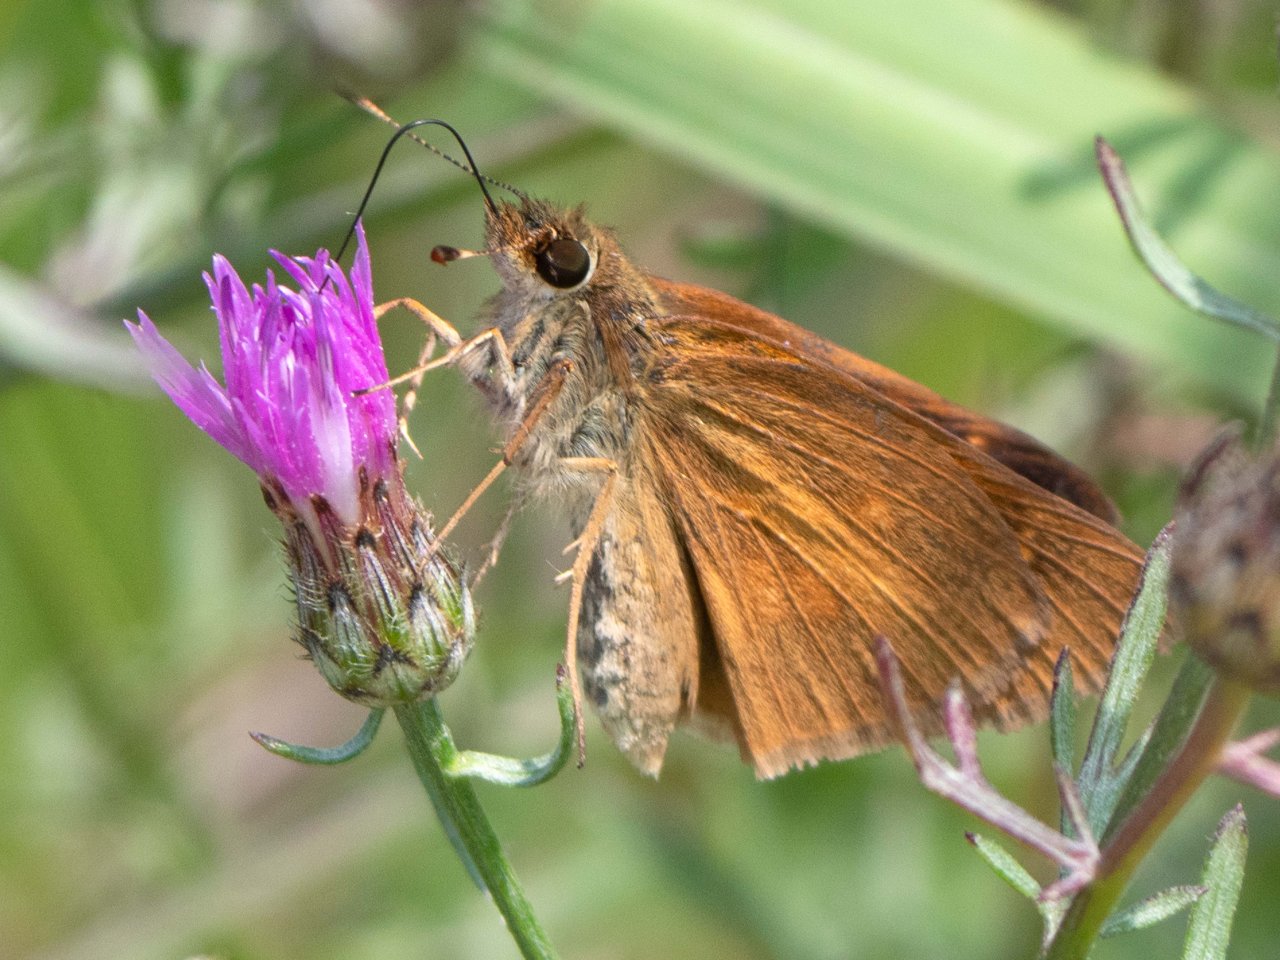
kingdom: Animalia
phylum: Arthropoda
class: Insecta
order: Lepidoptera
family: Hesperiidae
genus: Poanes
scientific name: Poanes viator
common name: Broad-winged Skipper
